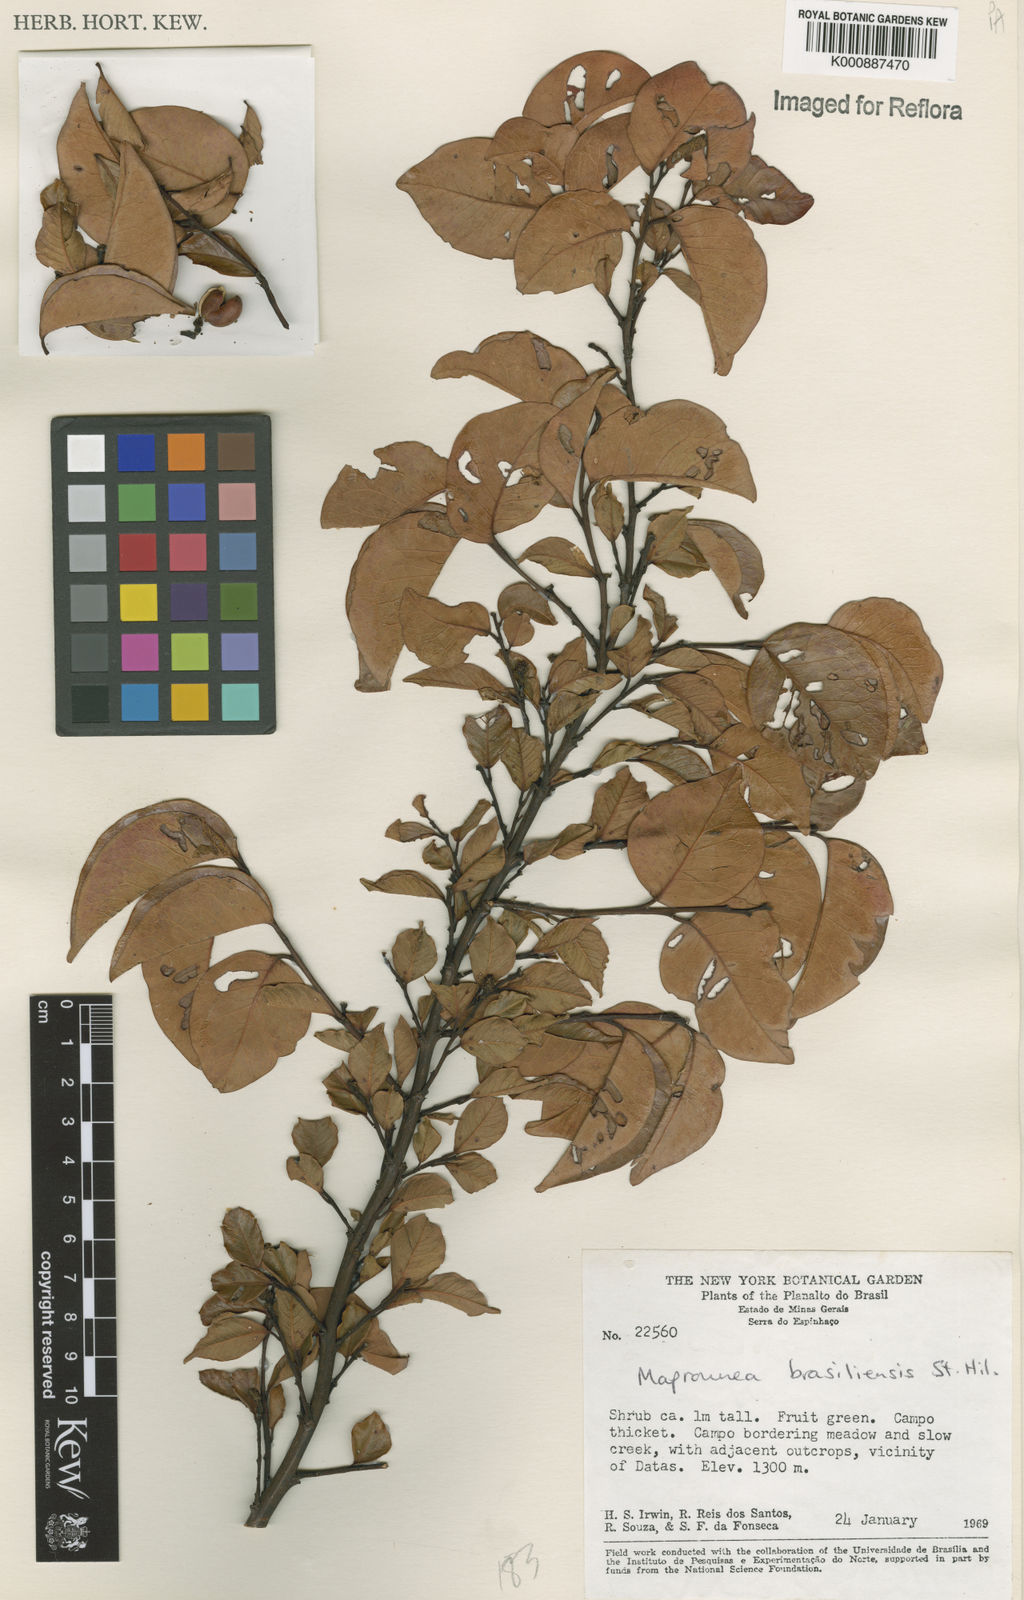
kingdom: Plantae
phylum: Tracheophyta
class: Magnoliopsida
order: Malpighiales
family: Euphorbiaceae
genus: Maprounea
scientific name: Maprounea brasiliensis
